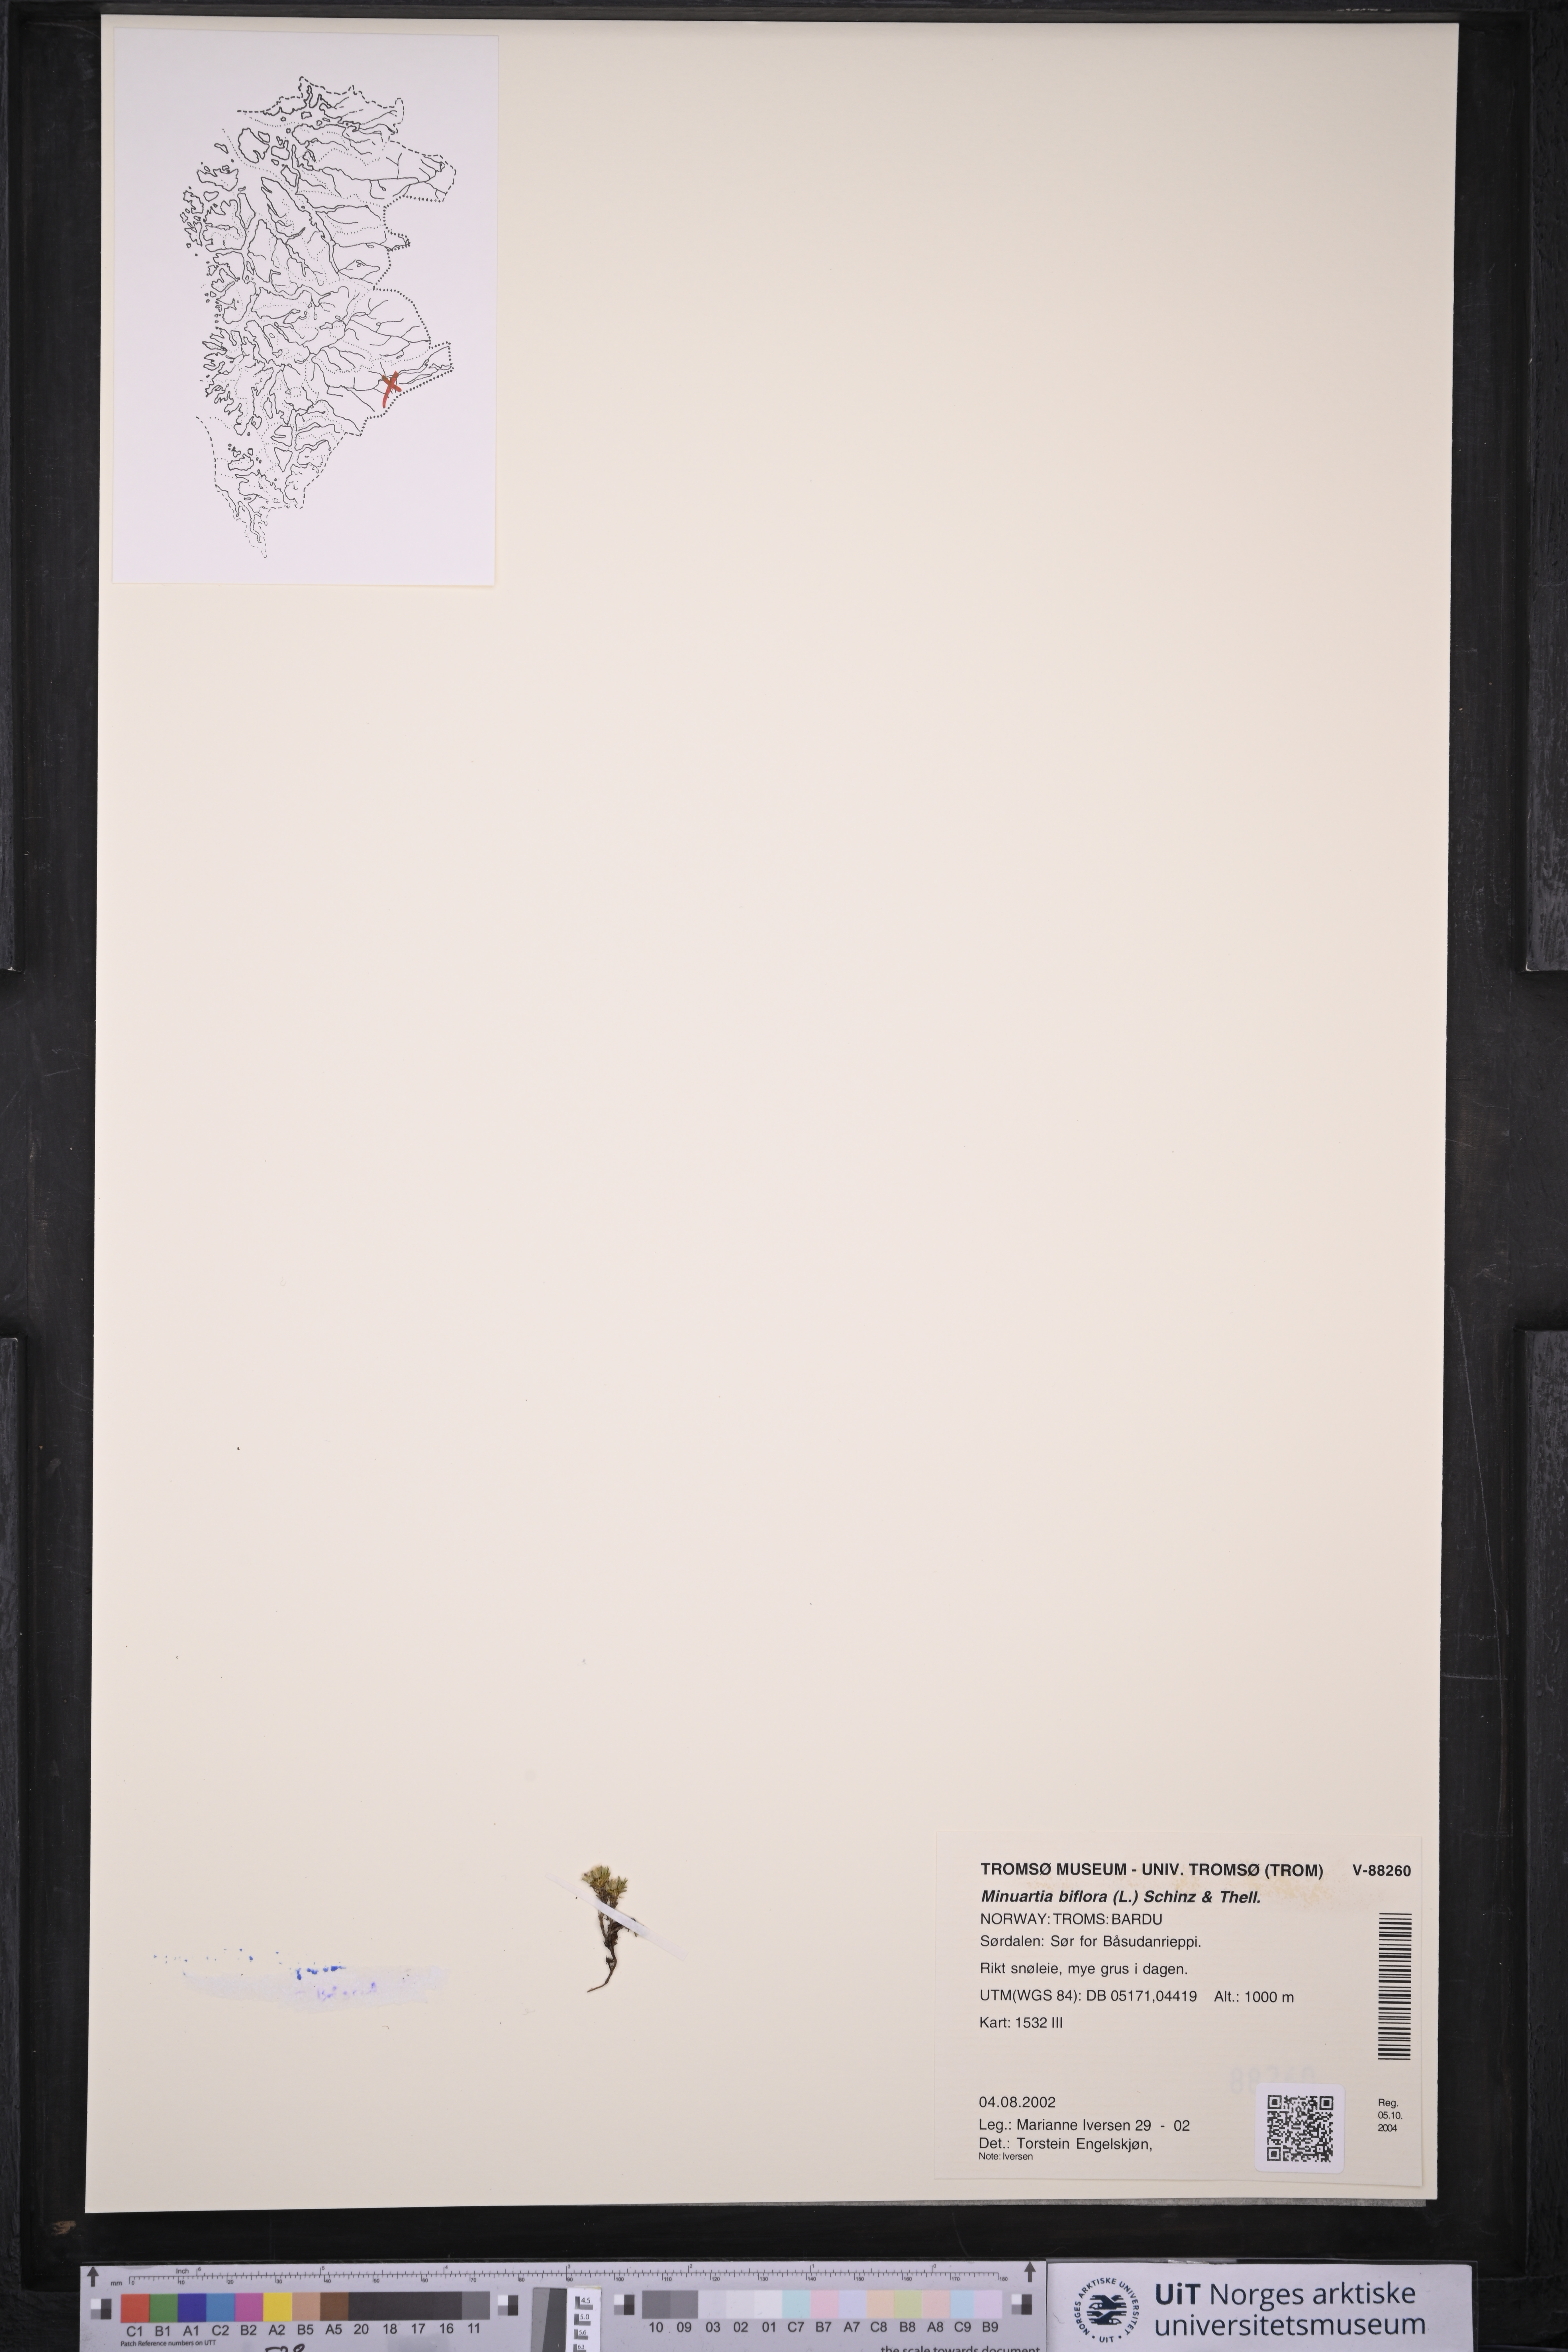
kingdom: Plantae
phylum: Tracheophyta
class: Magnoliopsida
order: Caryophyllales
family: Caryophyllaceae
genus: Cherleria
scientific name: Cherleria biflora
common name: Mountain sandwort
